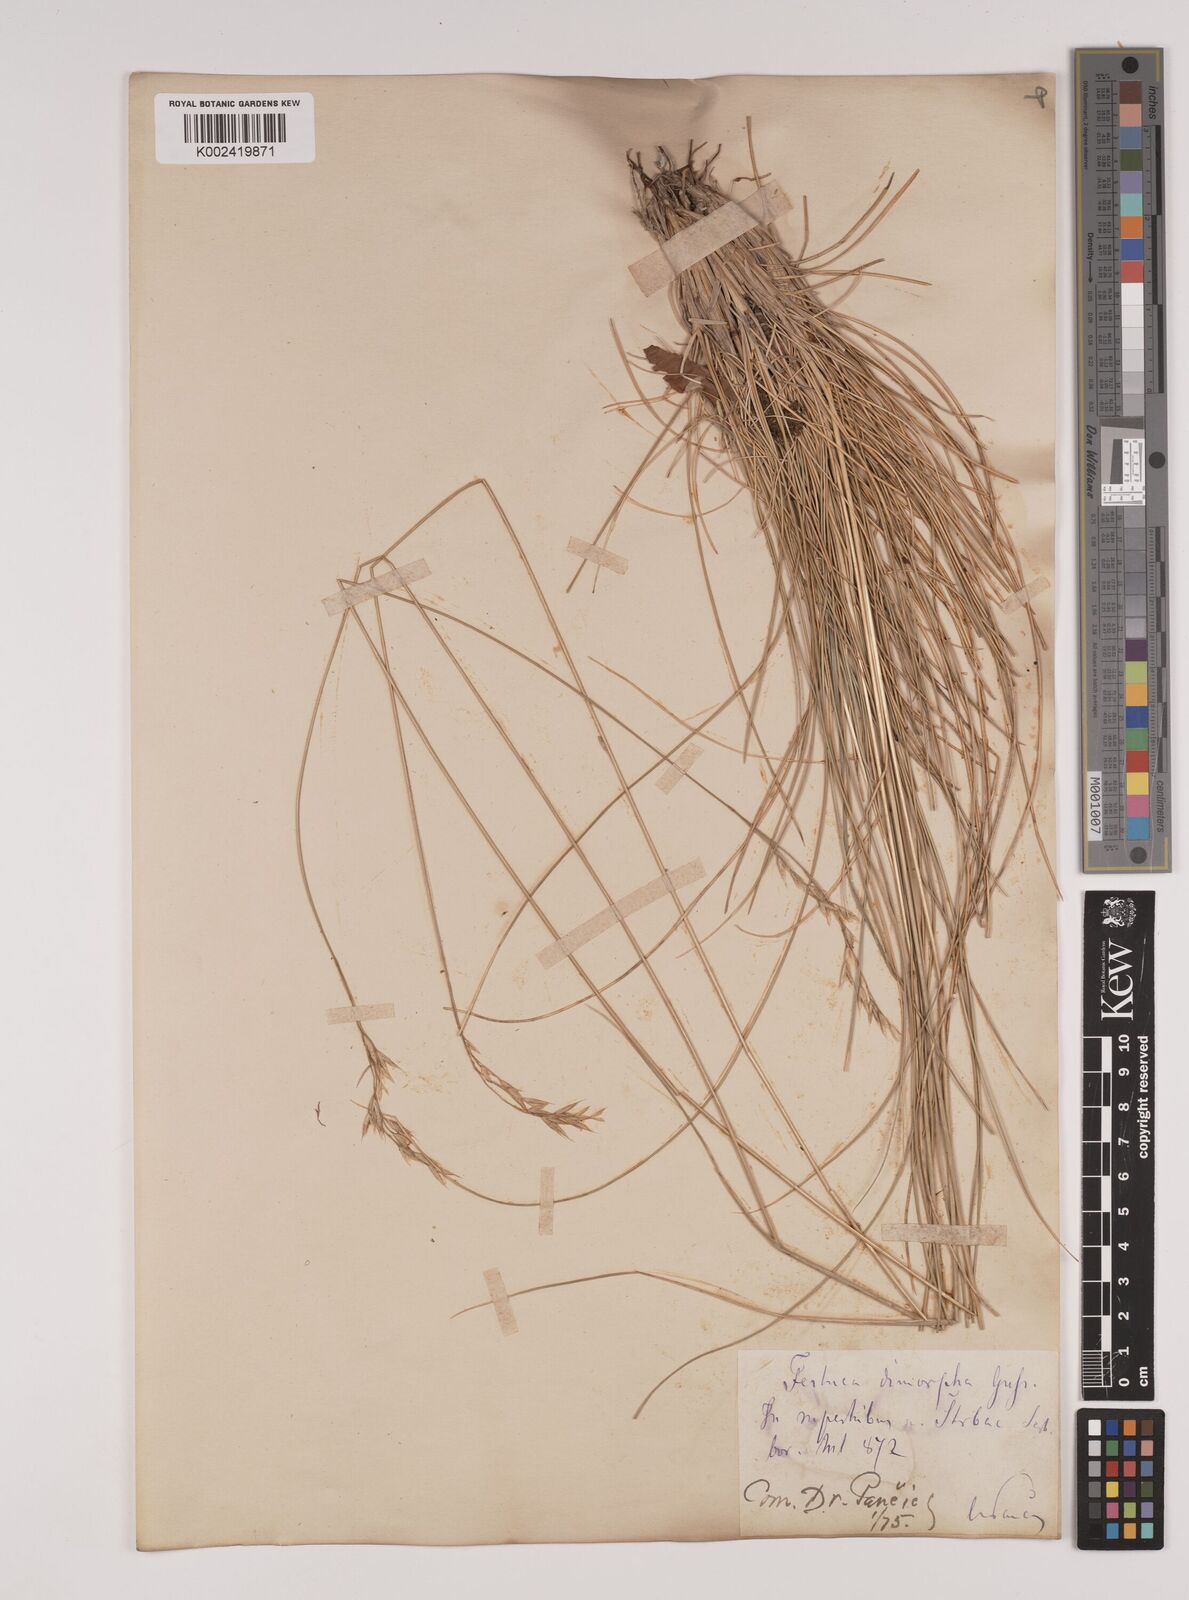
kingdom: Plantae
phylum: Tracheophyta
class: Liliopsida
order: Poales
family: Poaceae
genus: Festuca
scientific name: Festuca dimorpha
